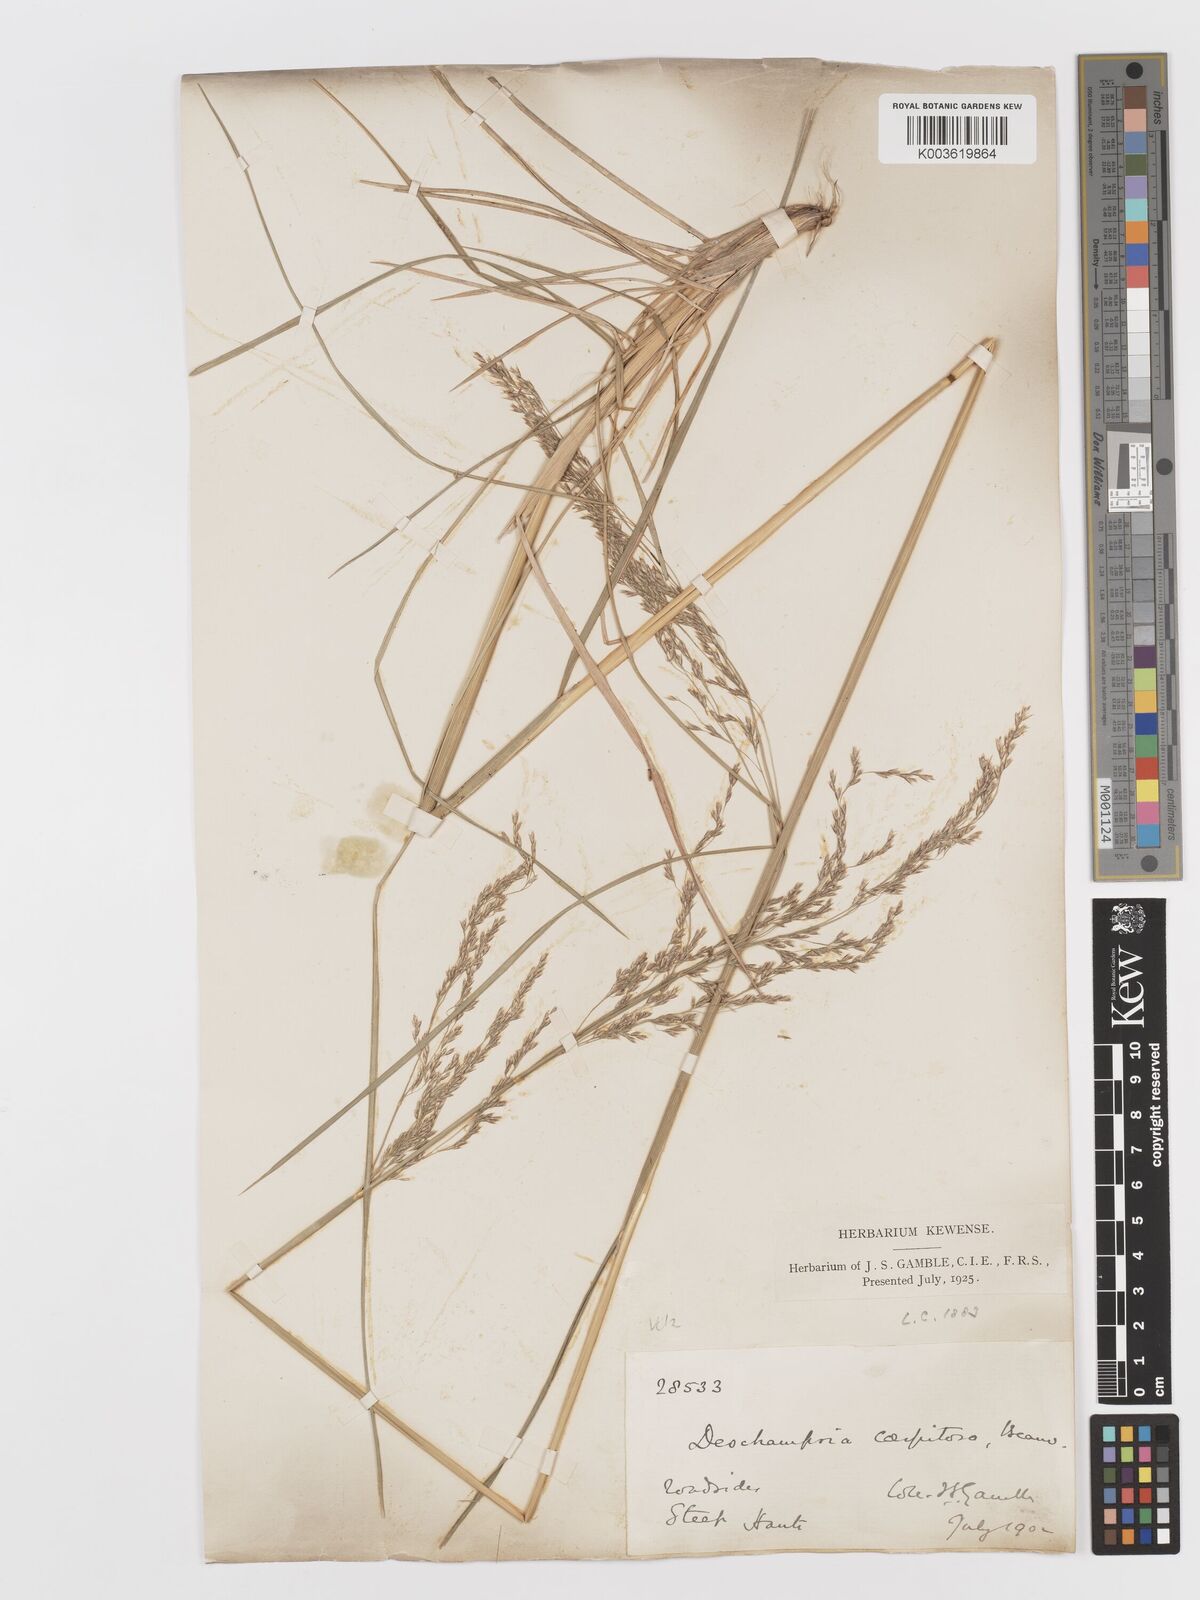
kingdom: Plantae
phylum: Tracheophyta
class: Liliopsida
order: Poales
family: Poaceae
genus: Deschampsia
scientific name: Deschampsia cespitosa
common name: Tufted hair-grass
